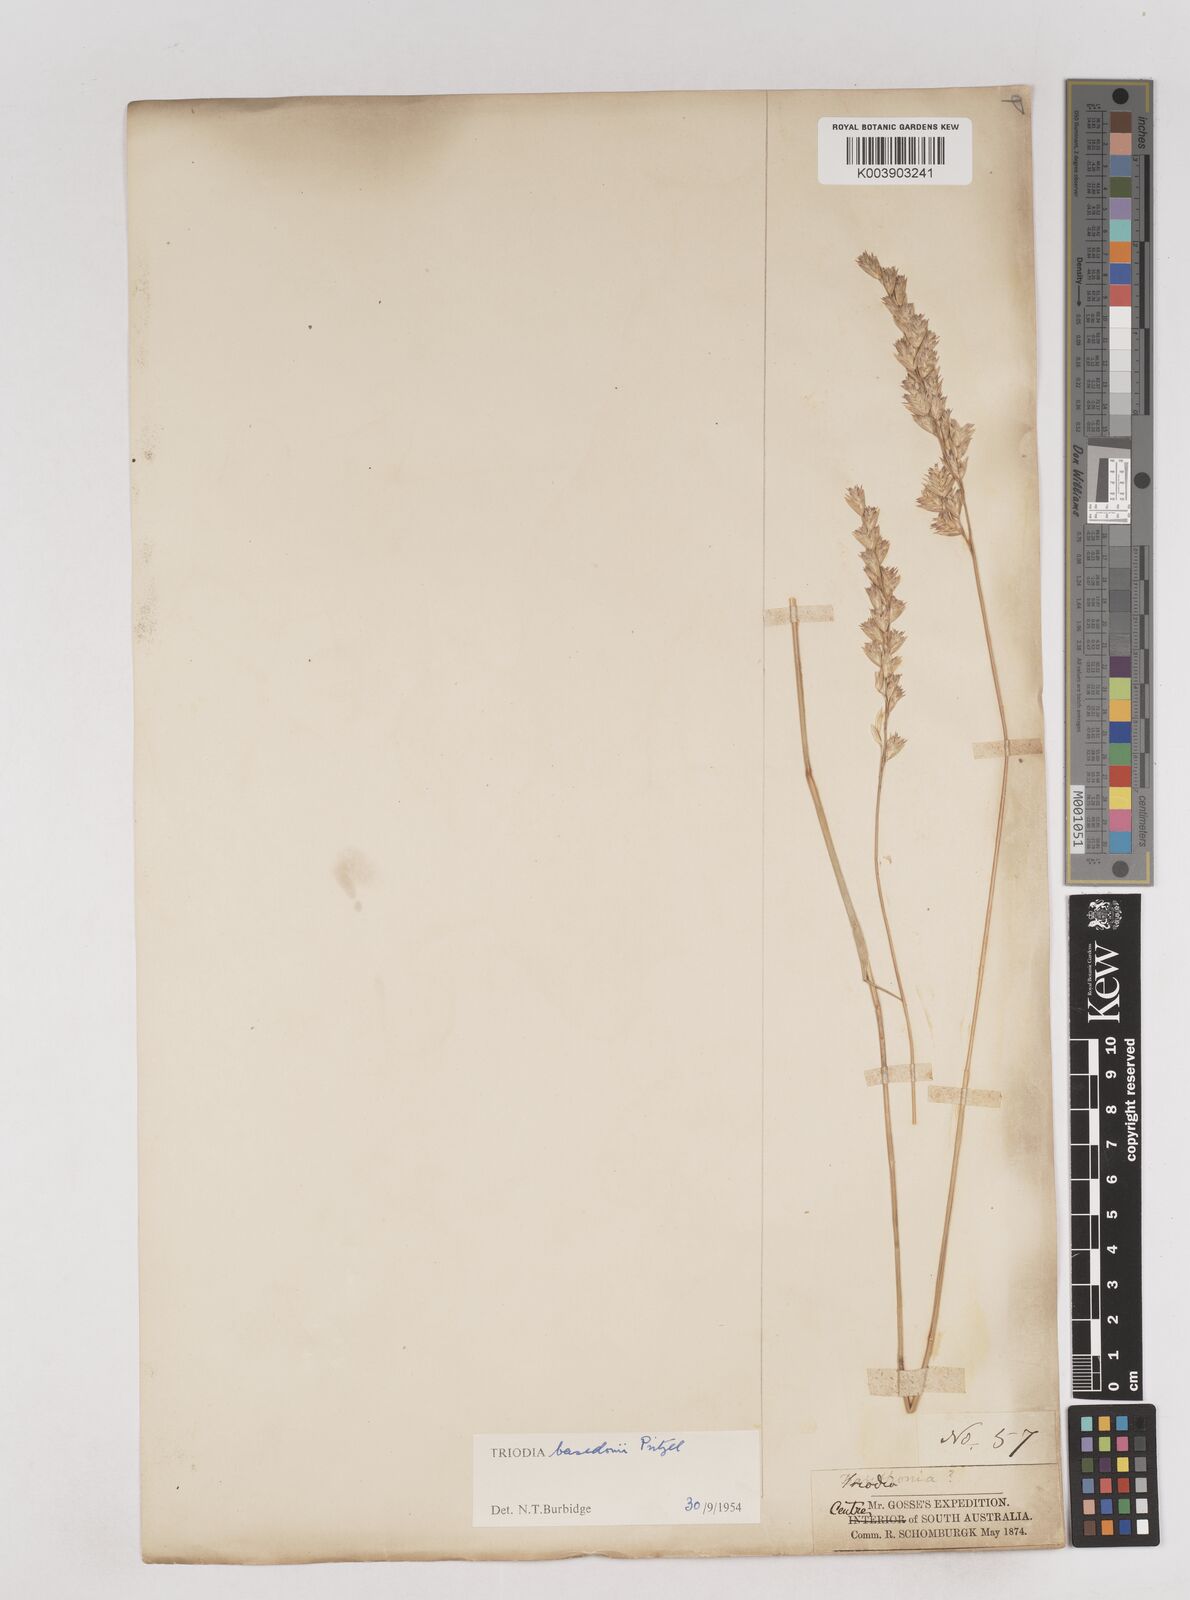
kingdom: Plantae
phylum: Tracheophyta
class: Liliopsida
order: Poales
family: Poaceae
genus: Triodia
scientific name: Triodia basedowii
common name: Hard spinifex
